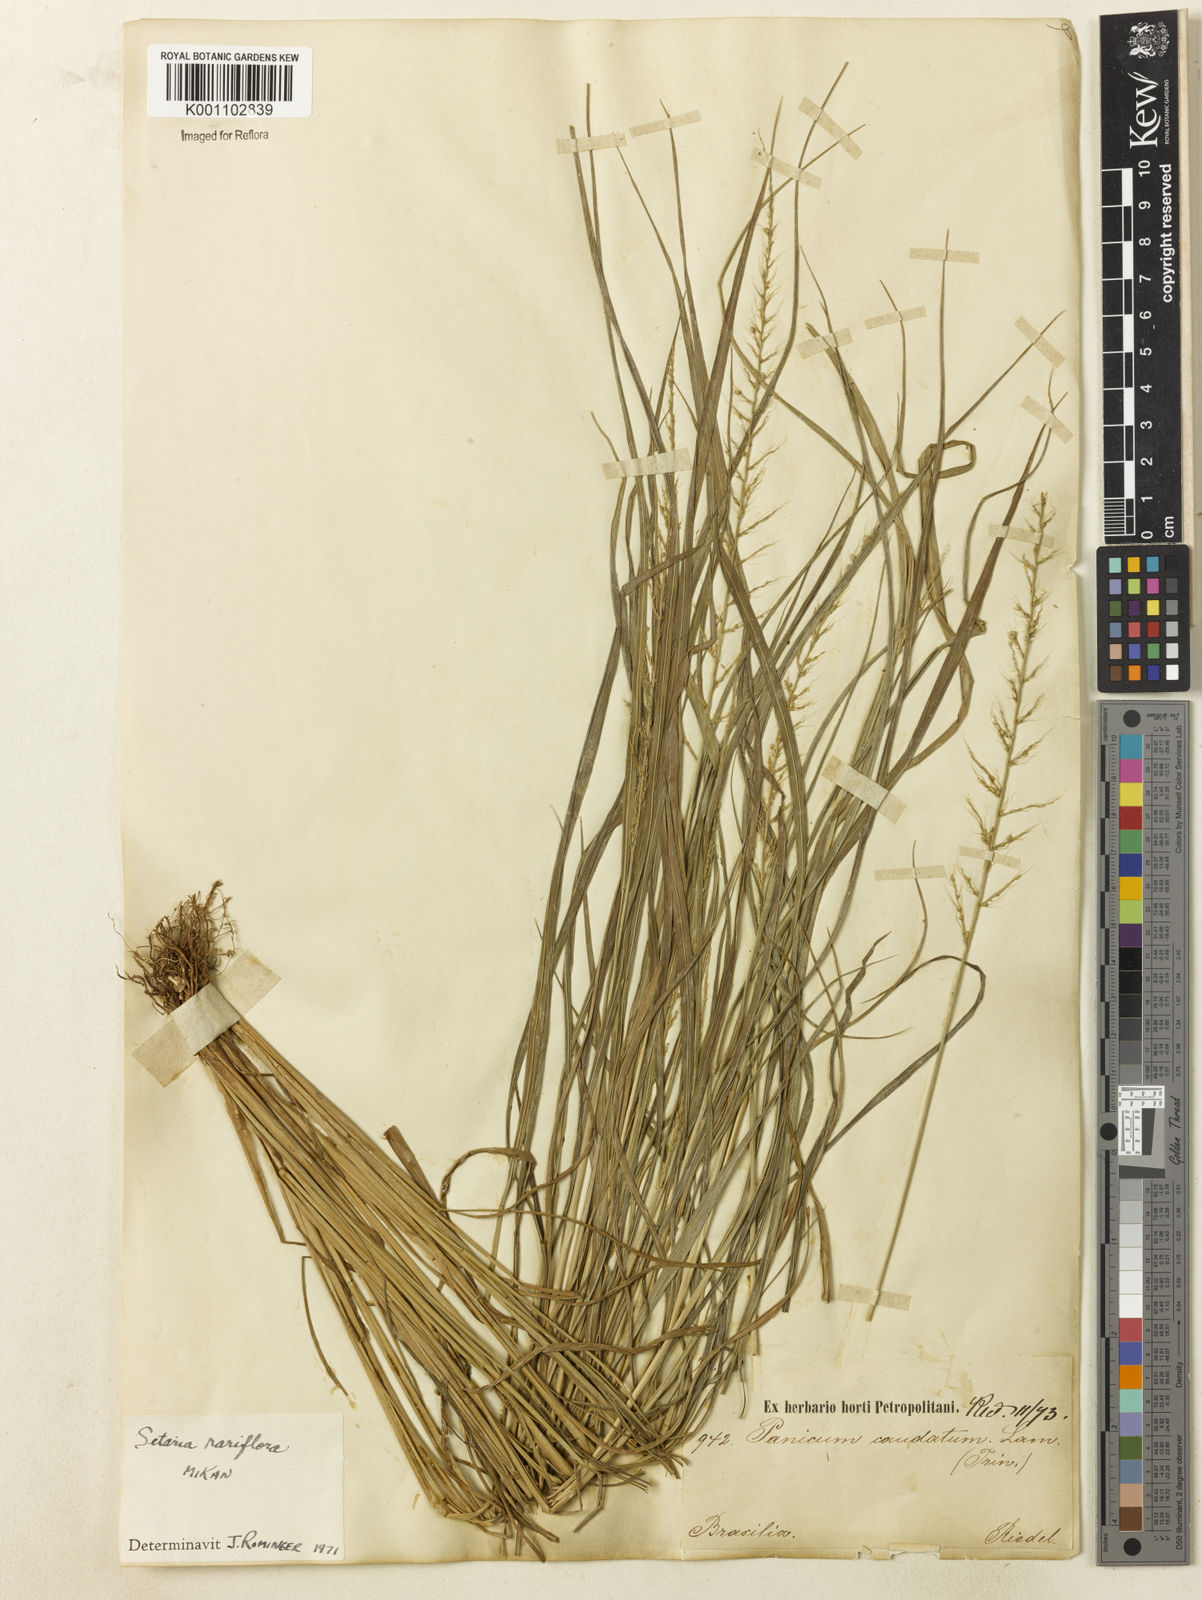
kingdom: Plantae
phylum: Tracheophyta
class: Liliopsida
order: Poales
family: Poaceae
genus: Setaria
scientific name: Setaria setosa
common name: West indies bristle grass
